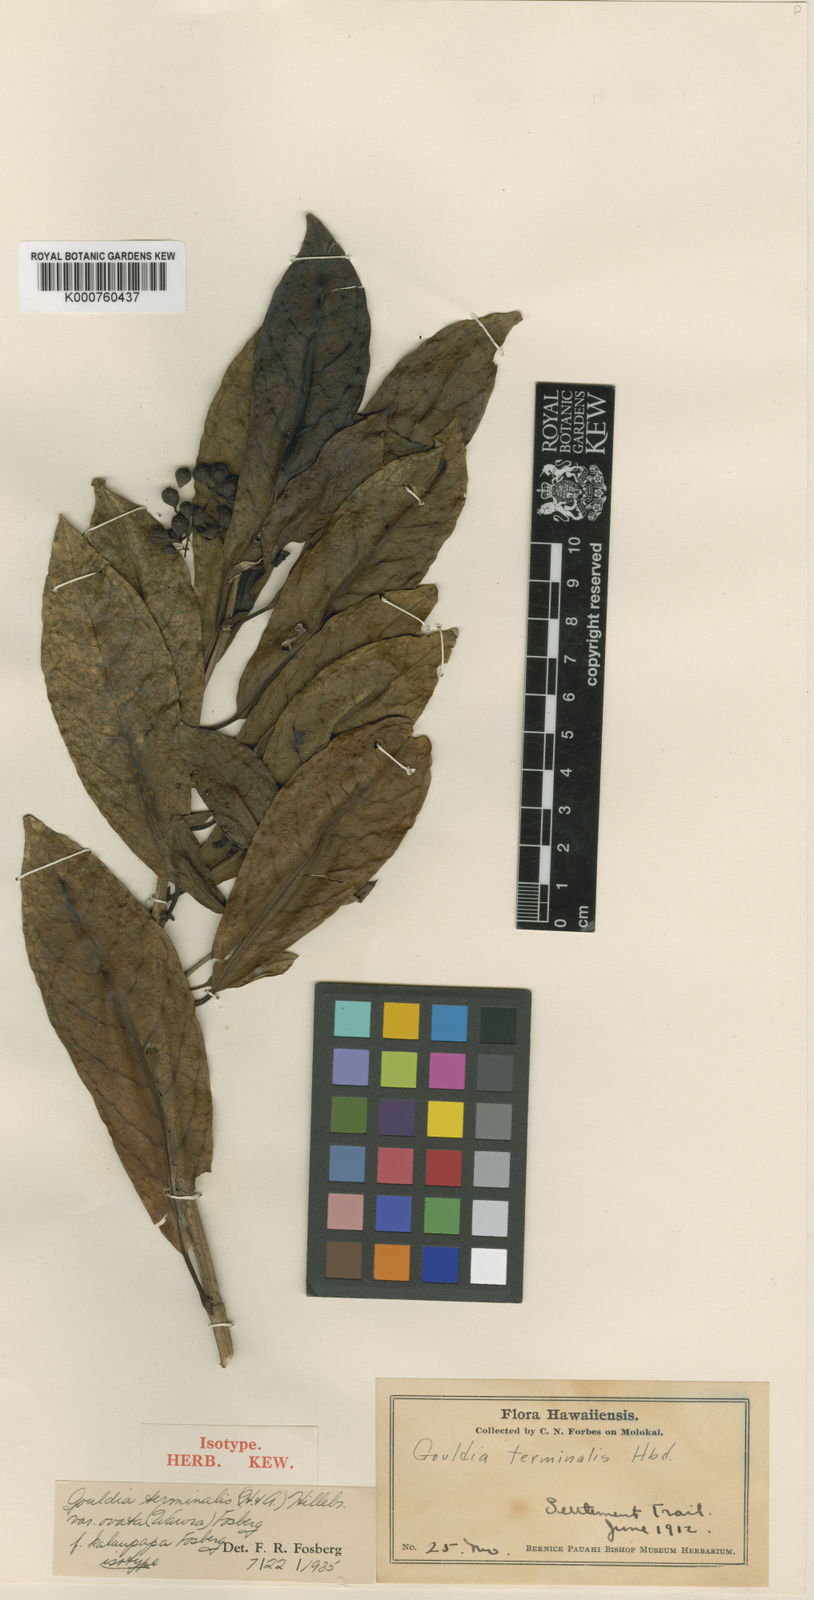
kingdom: Plantae
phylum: Tracheophyta
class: Magnoliopsida
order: Gentianales
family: Rubiaceae
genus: Kadua
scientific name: Kadua affinis
